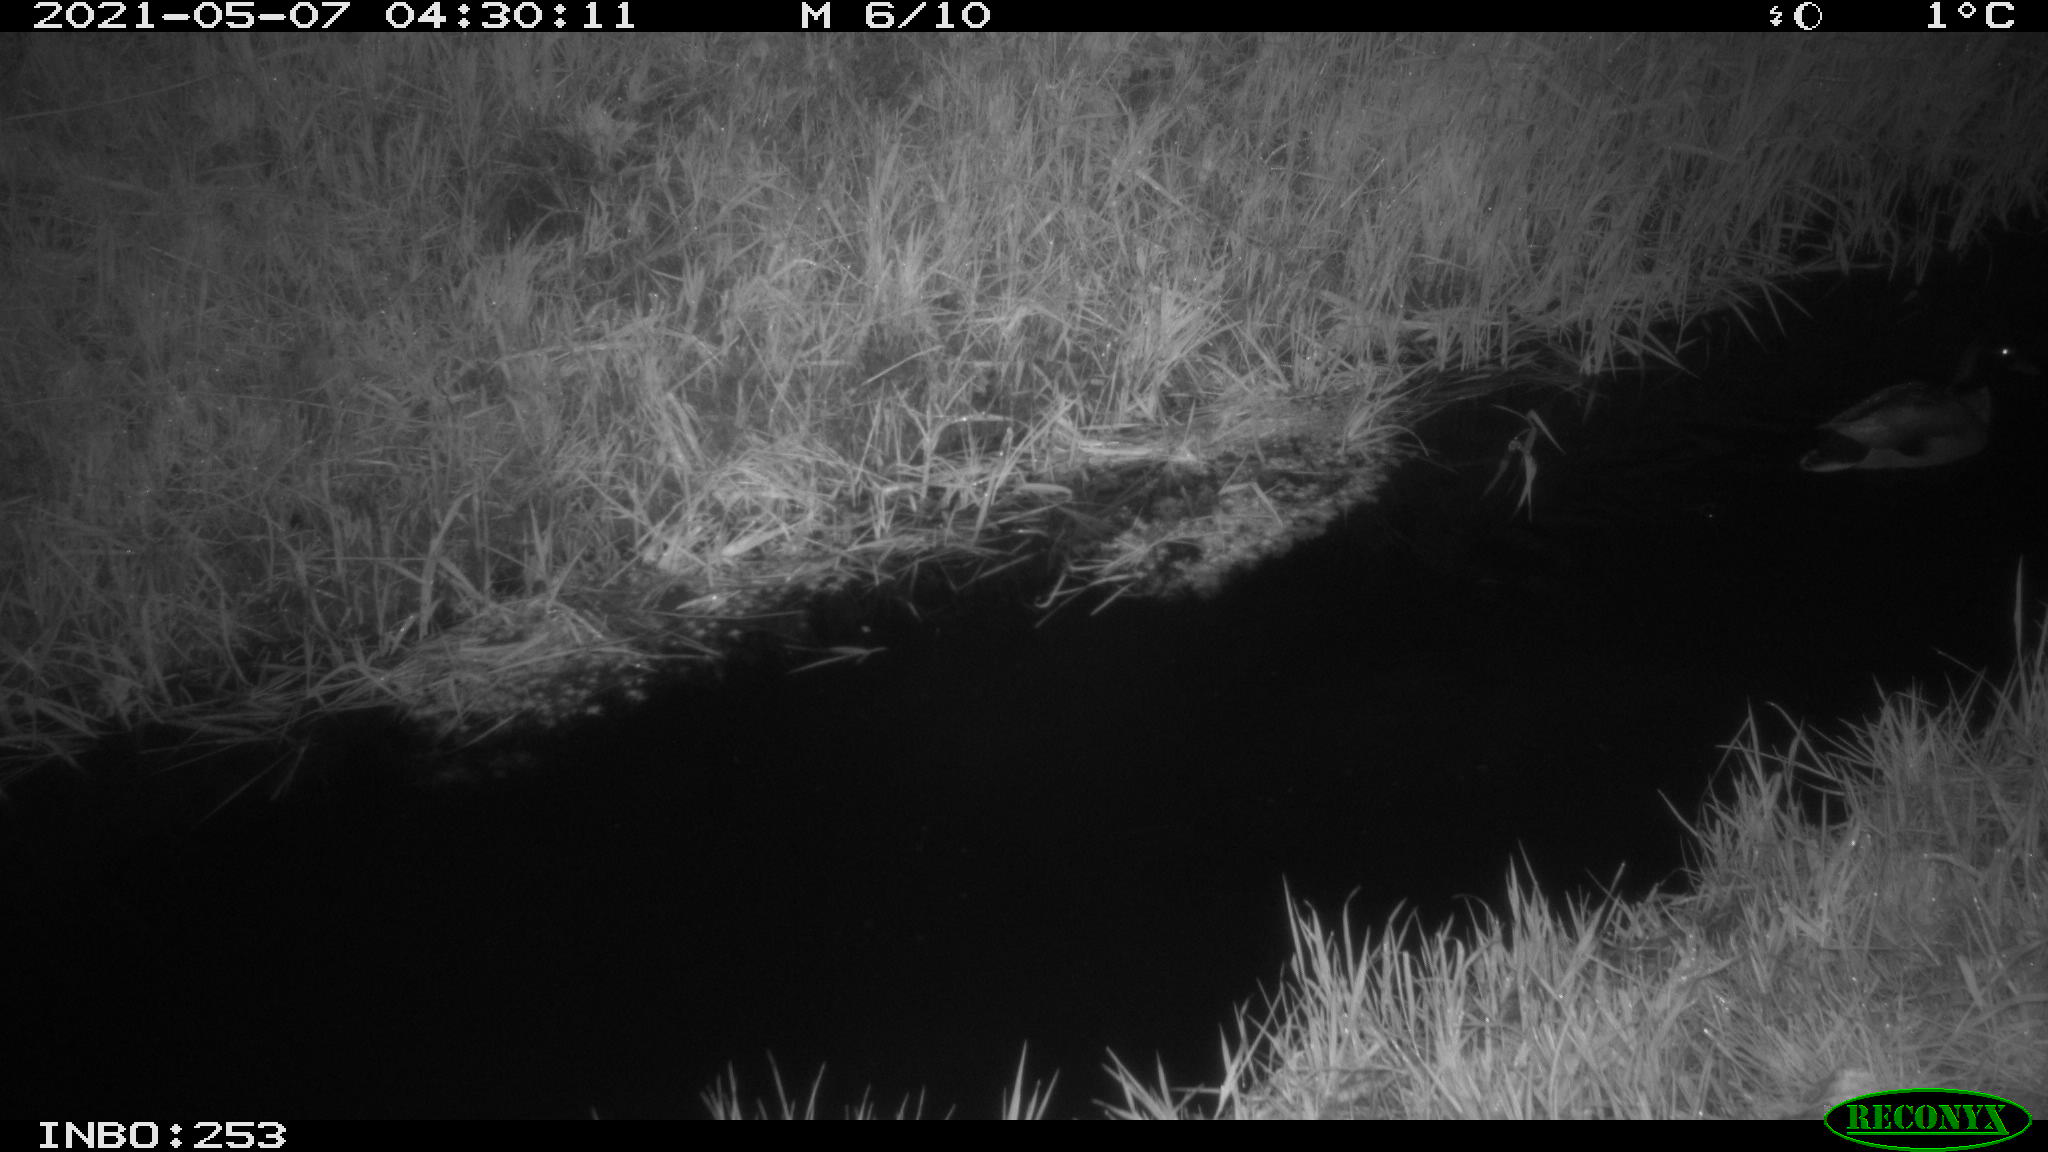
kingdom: Animalia
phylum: Chordata
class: Aves
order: Anseriformes
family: Anatidae
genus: Anas
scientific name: Anas platyrhynchos
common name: Mallard
